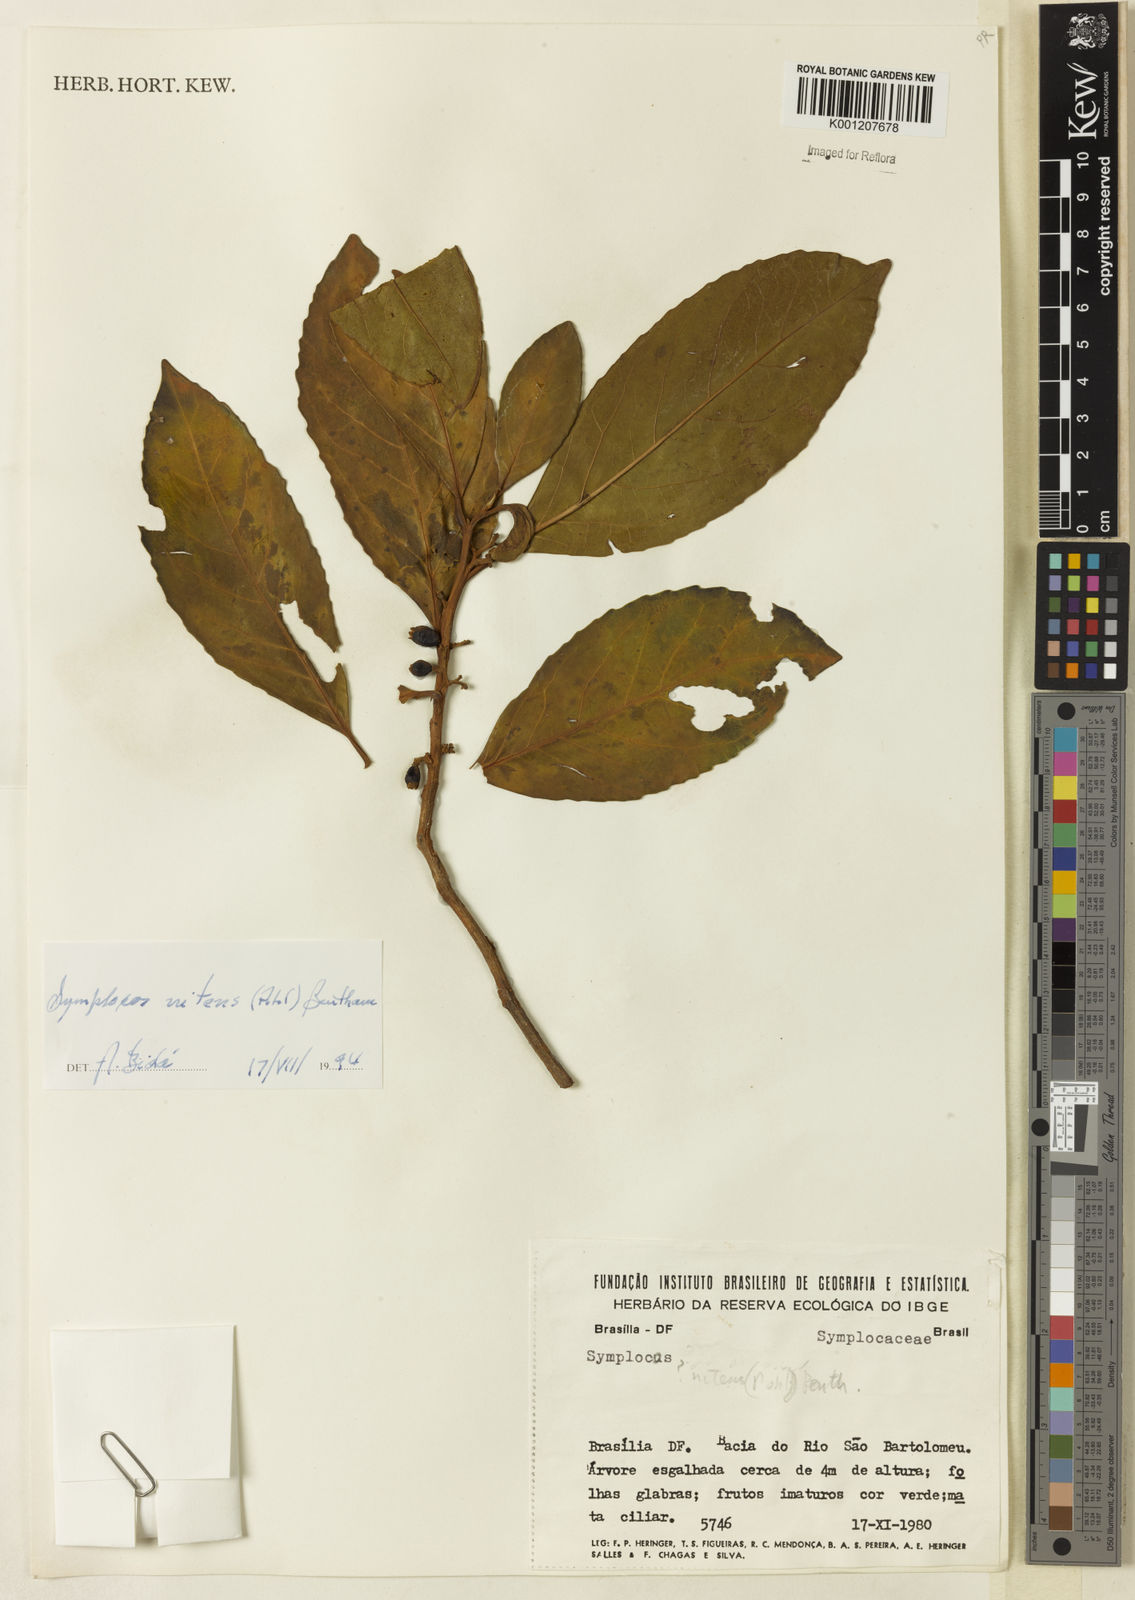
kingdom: Plantae
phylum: Tracheophyta
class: Magnoliopsida
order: Ericales
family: Symplocaceae
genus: Symplocos
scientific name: Symplocos nitens
